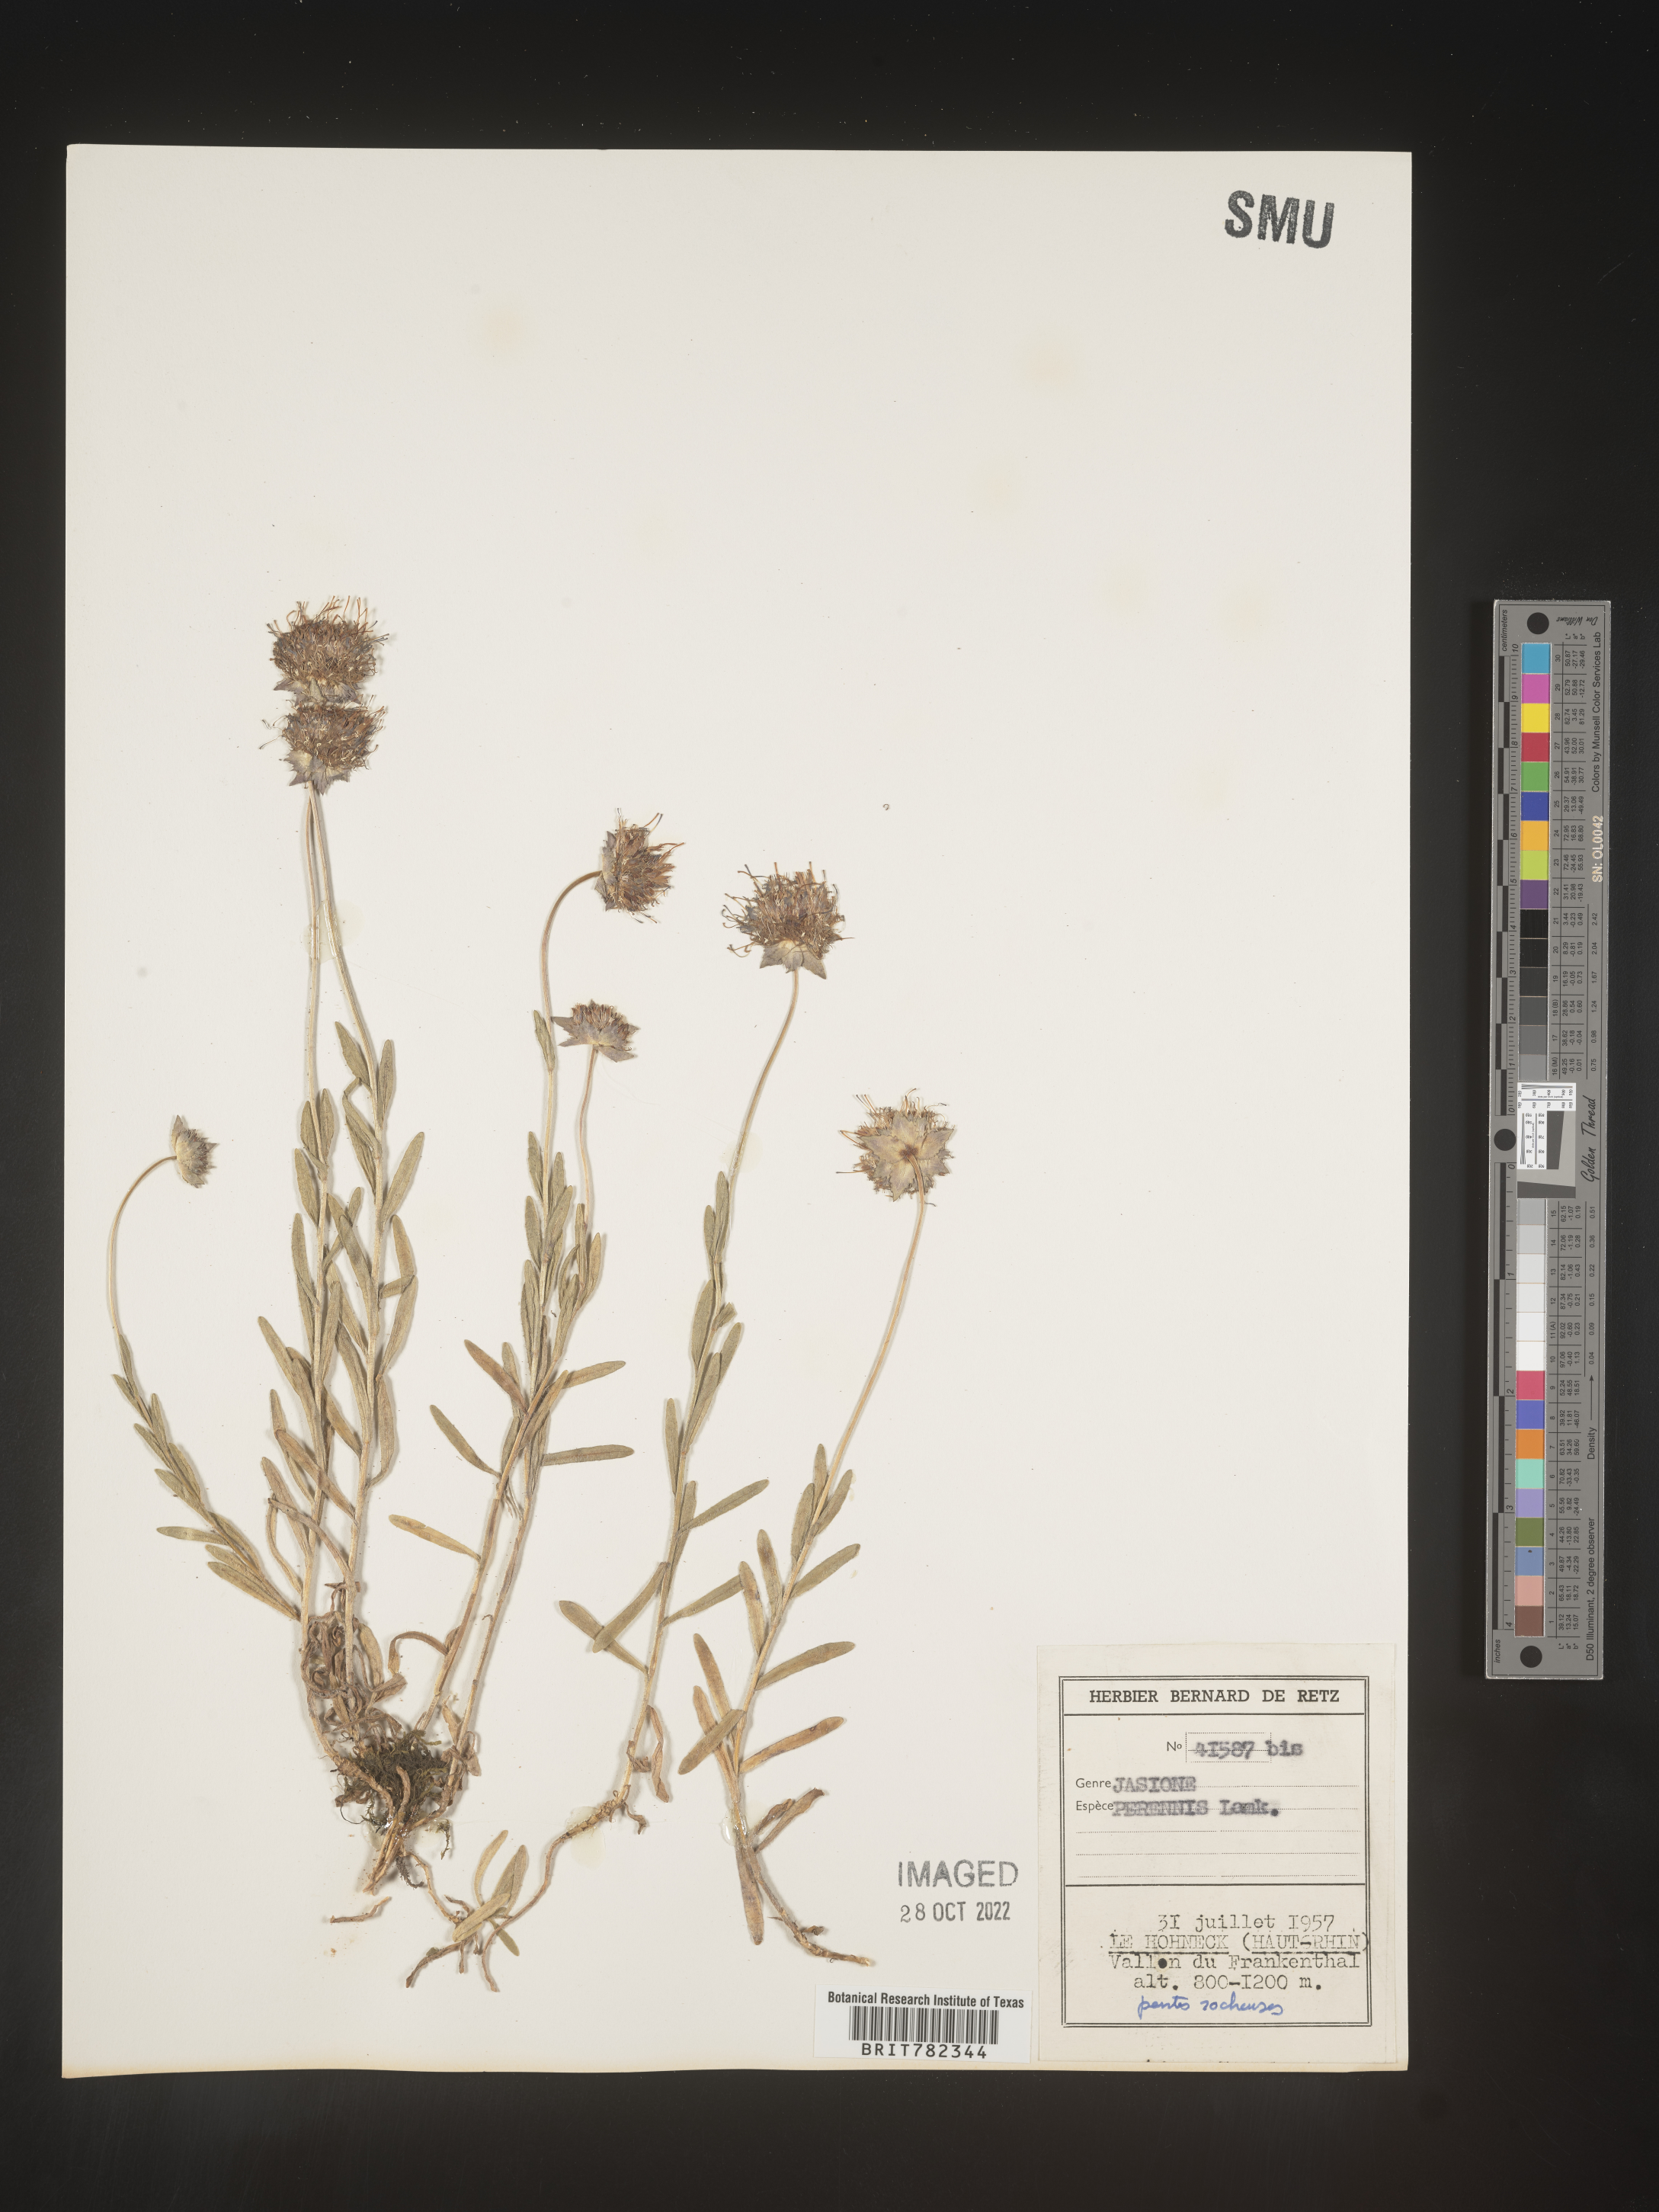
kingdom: Plantae
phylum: Tracheophyta
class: Magnoliopsida
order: Asterales
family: Campanulaceae
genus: Jasione
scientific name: Jasione
